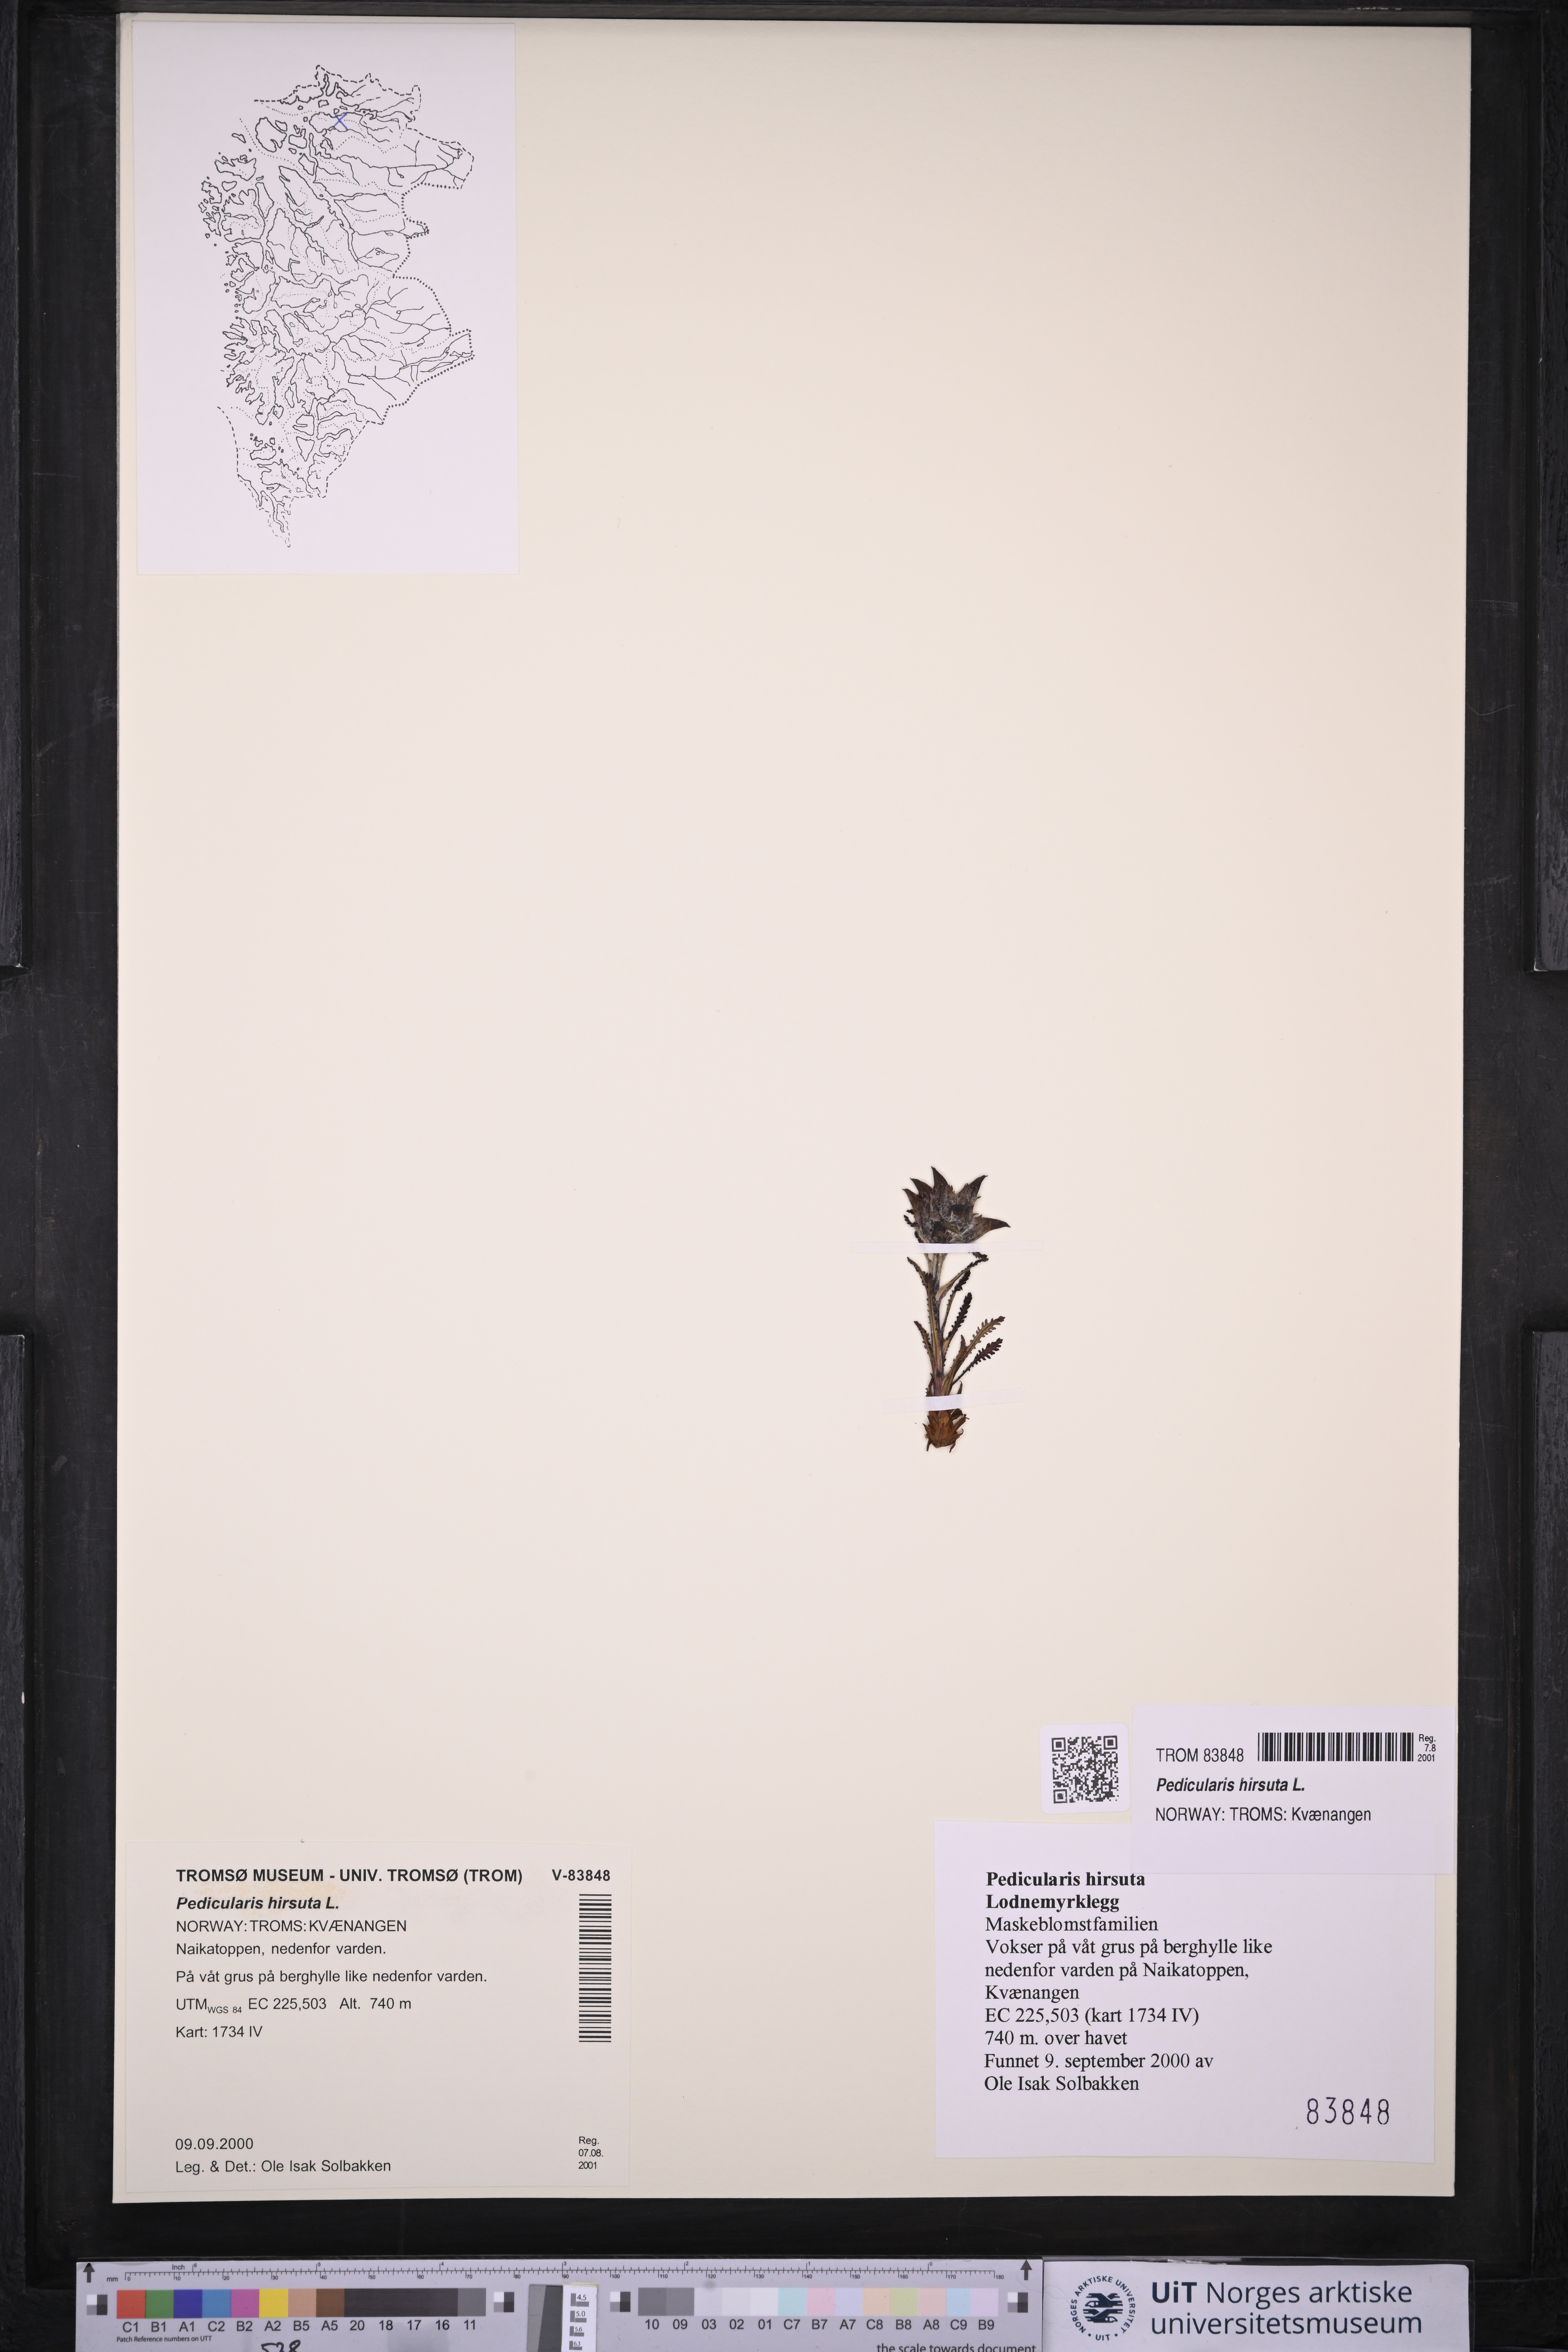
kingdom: Plantae
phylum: Tracheophyta
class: Magnoliopsida
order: Lamiales
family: Orobanchaceae
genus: Pedicularis
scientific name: Pedicularis hirsuta
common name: Hairy lousewort
